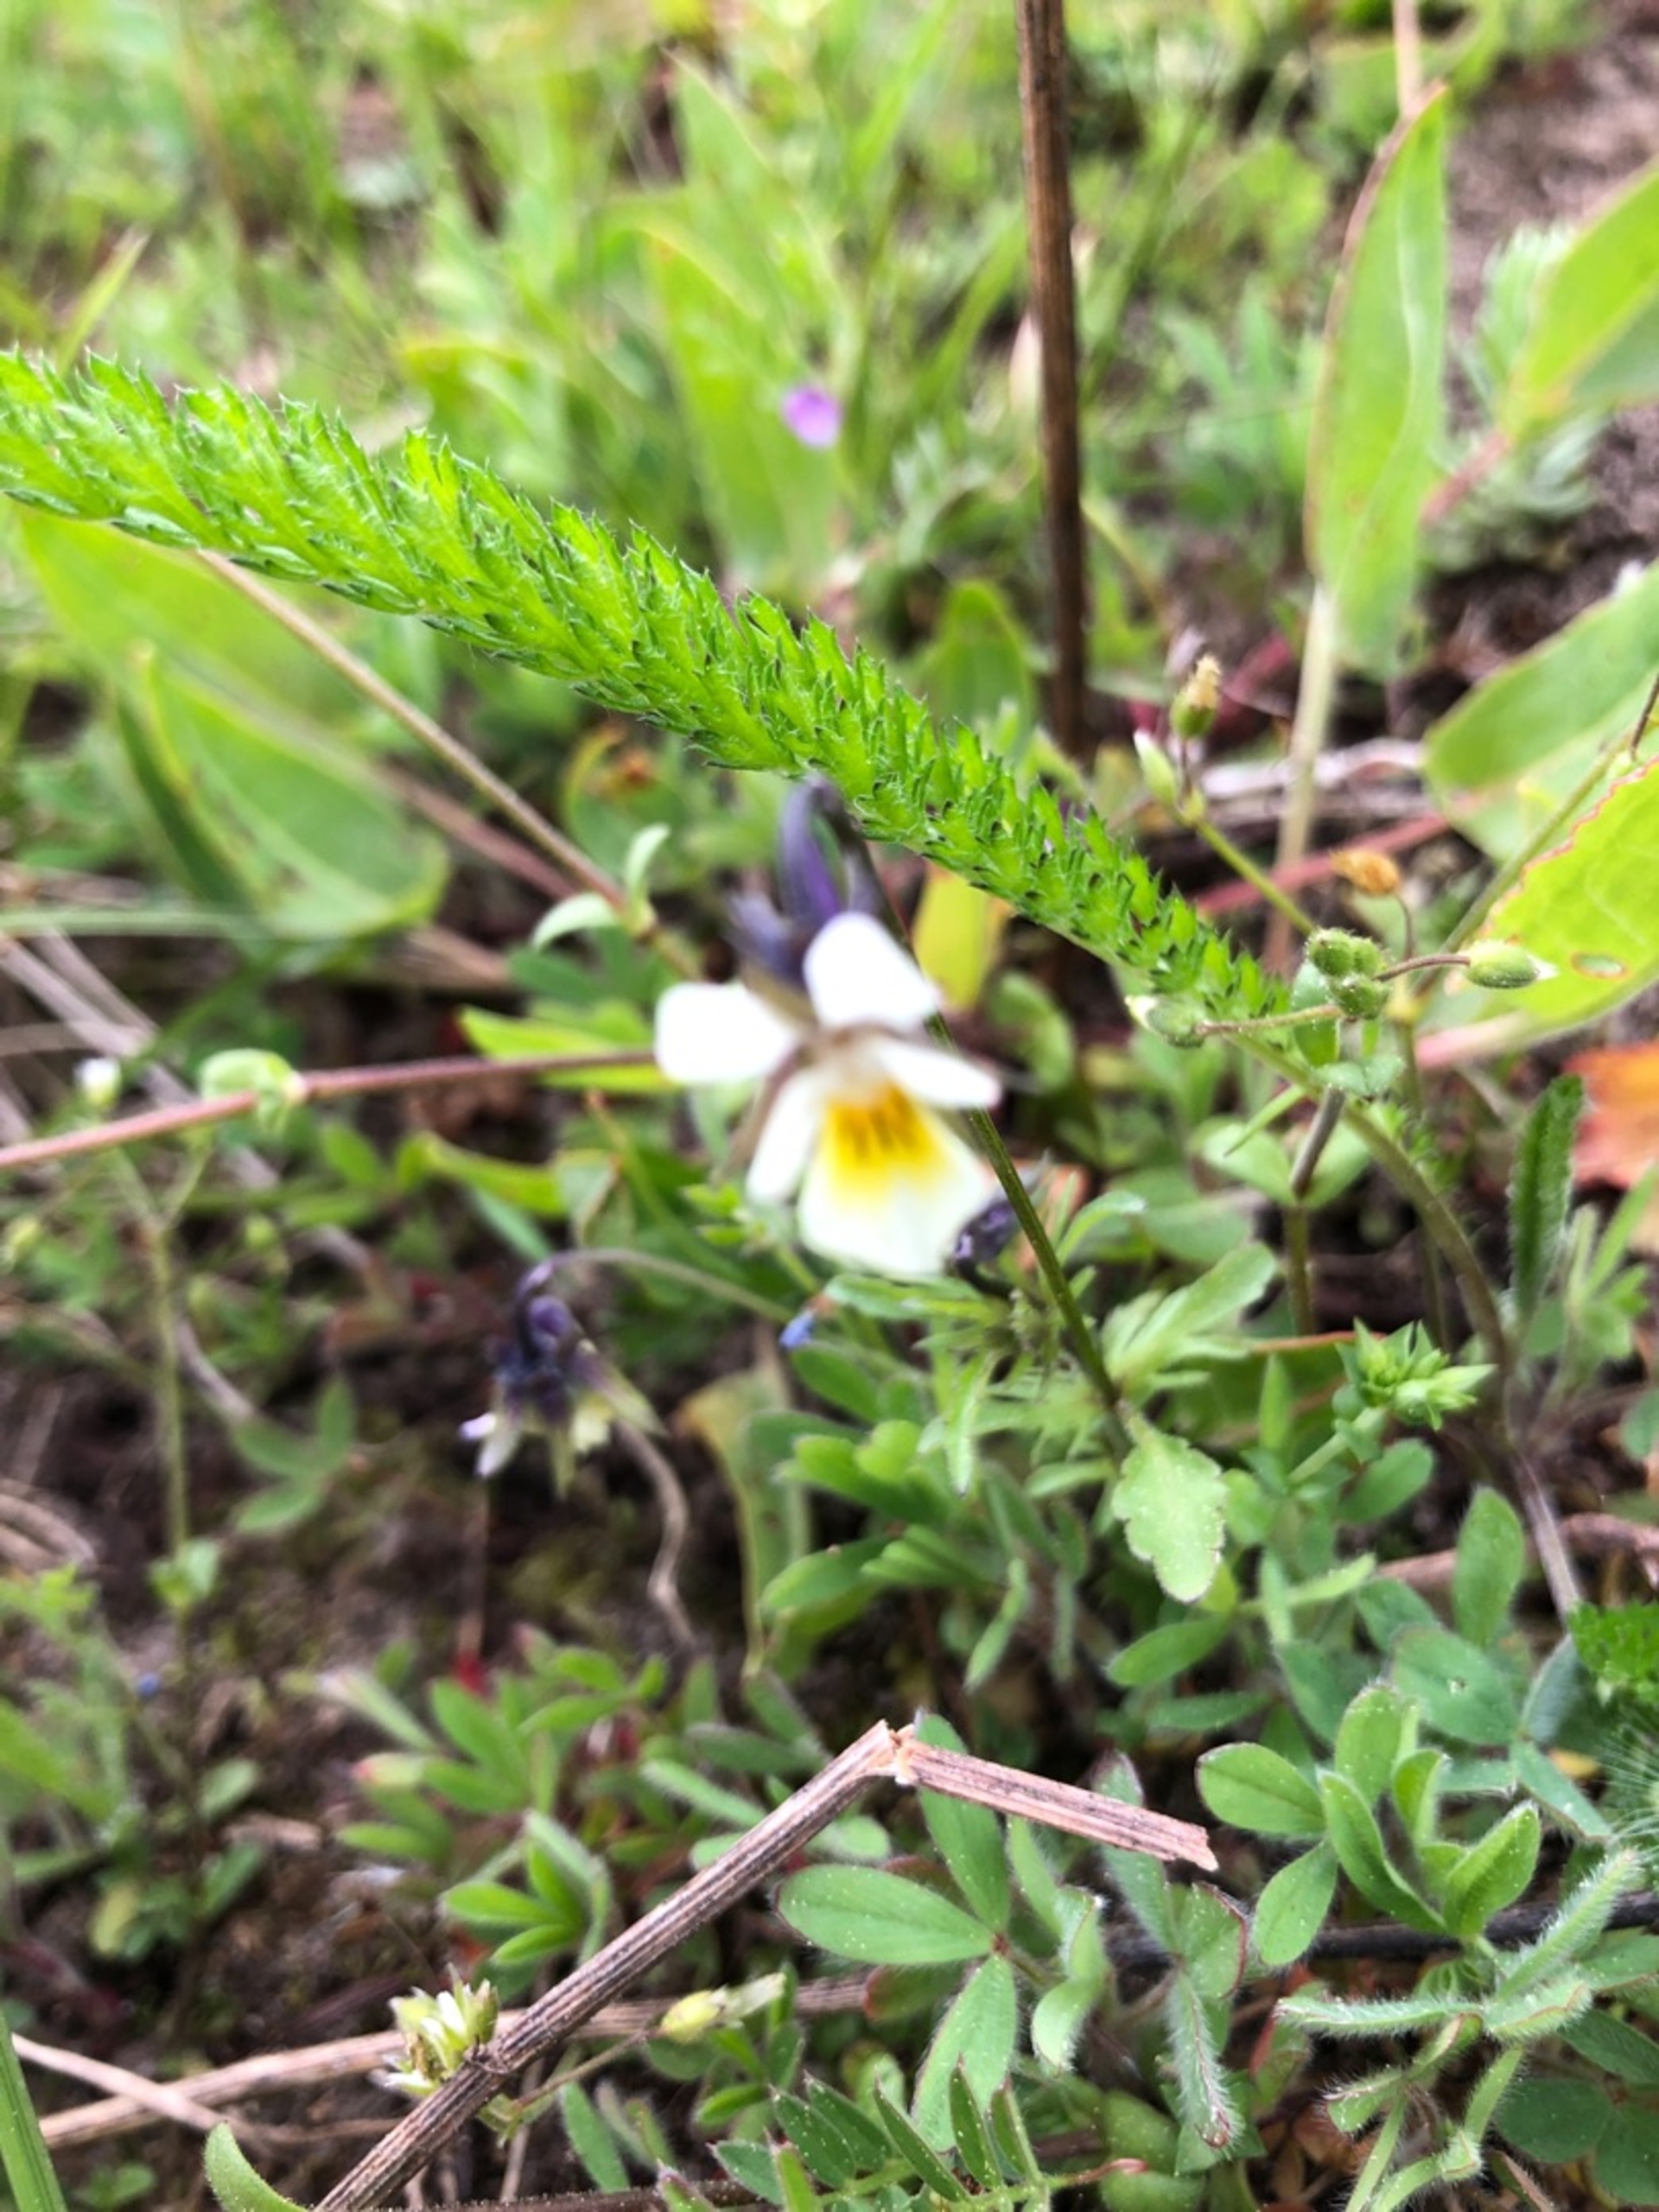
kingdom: Plantae
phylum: Tracheophyta
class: Magnoliopsida
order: Malpighiales
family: Violaceae
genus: Viola
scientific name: Viola arvensis
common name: Ager-stedmoderblomst
